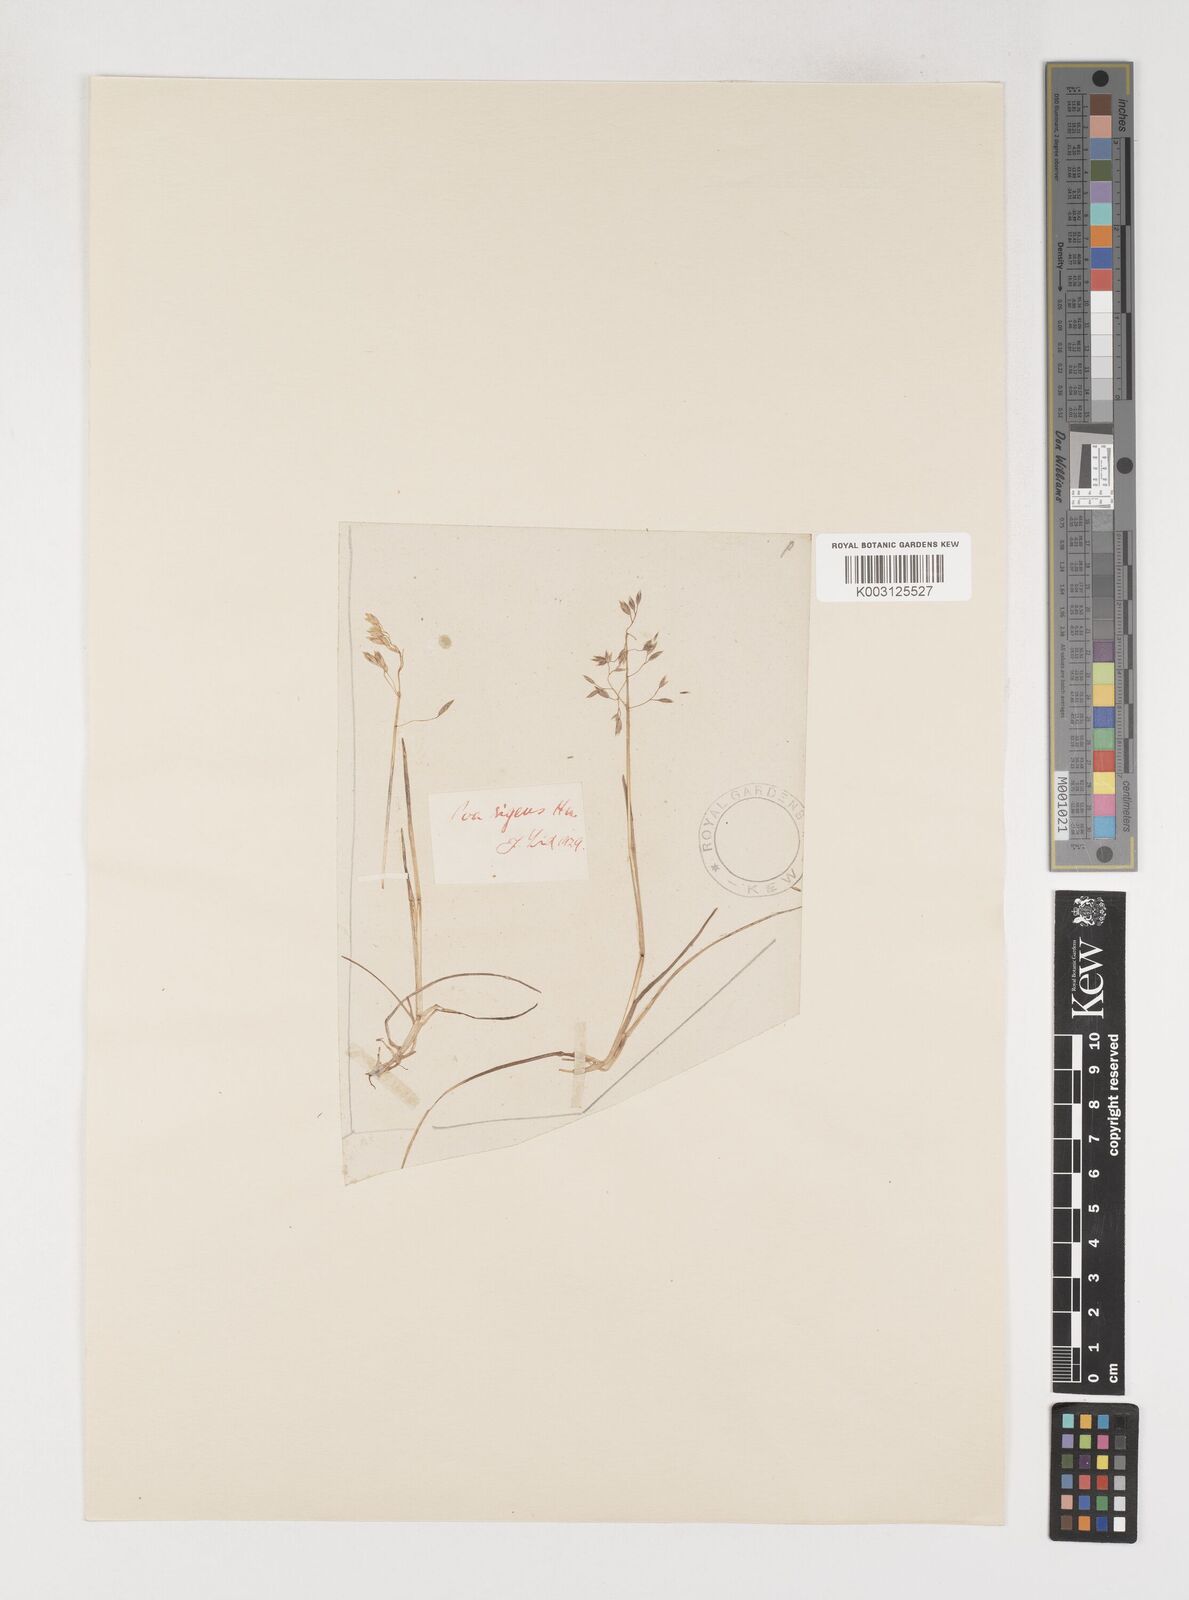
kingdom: Plantae
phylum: Tracheophyta
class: Liliopsida
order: Poales
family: Poaceae
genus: Poa
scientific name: Poa arctica
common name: Arctic bluegrass
